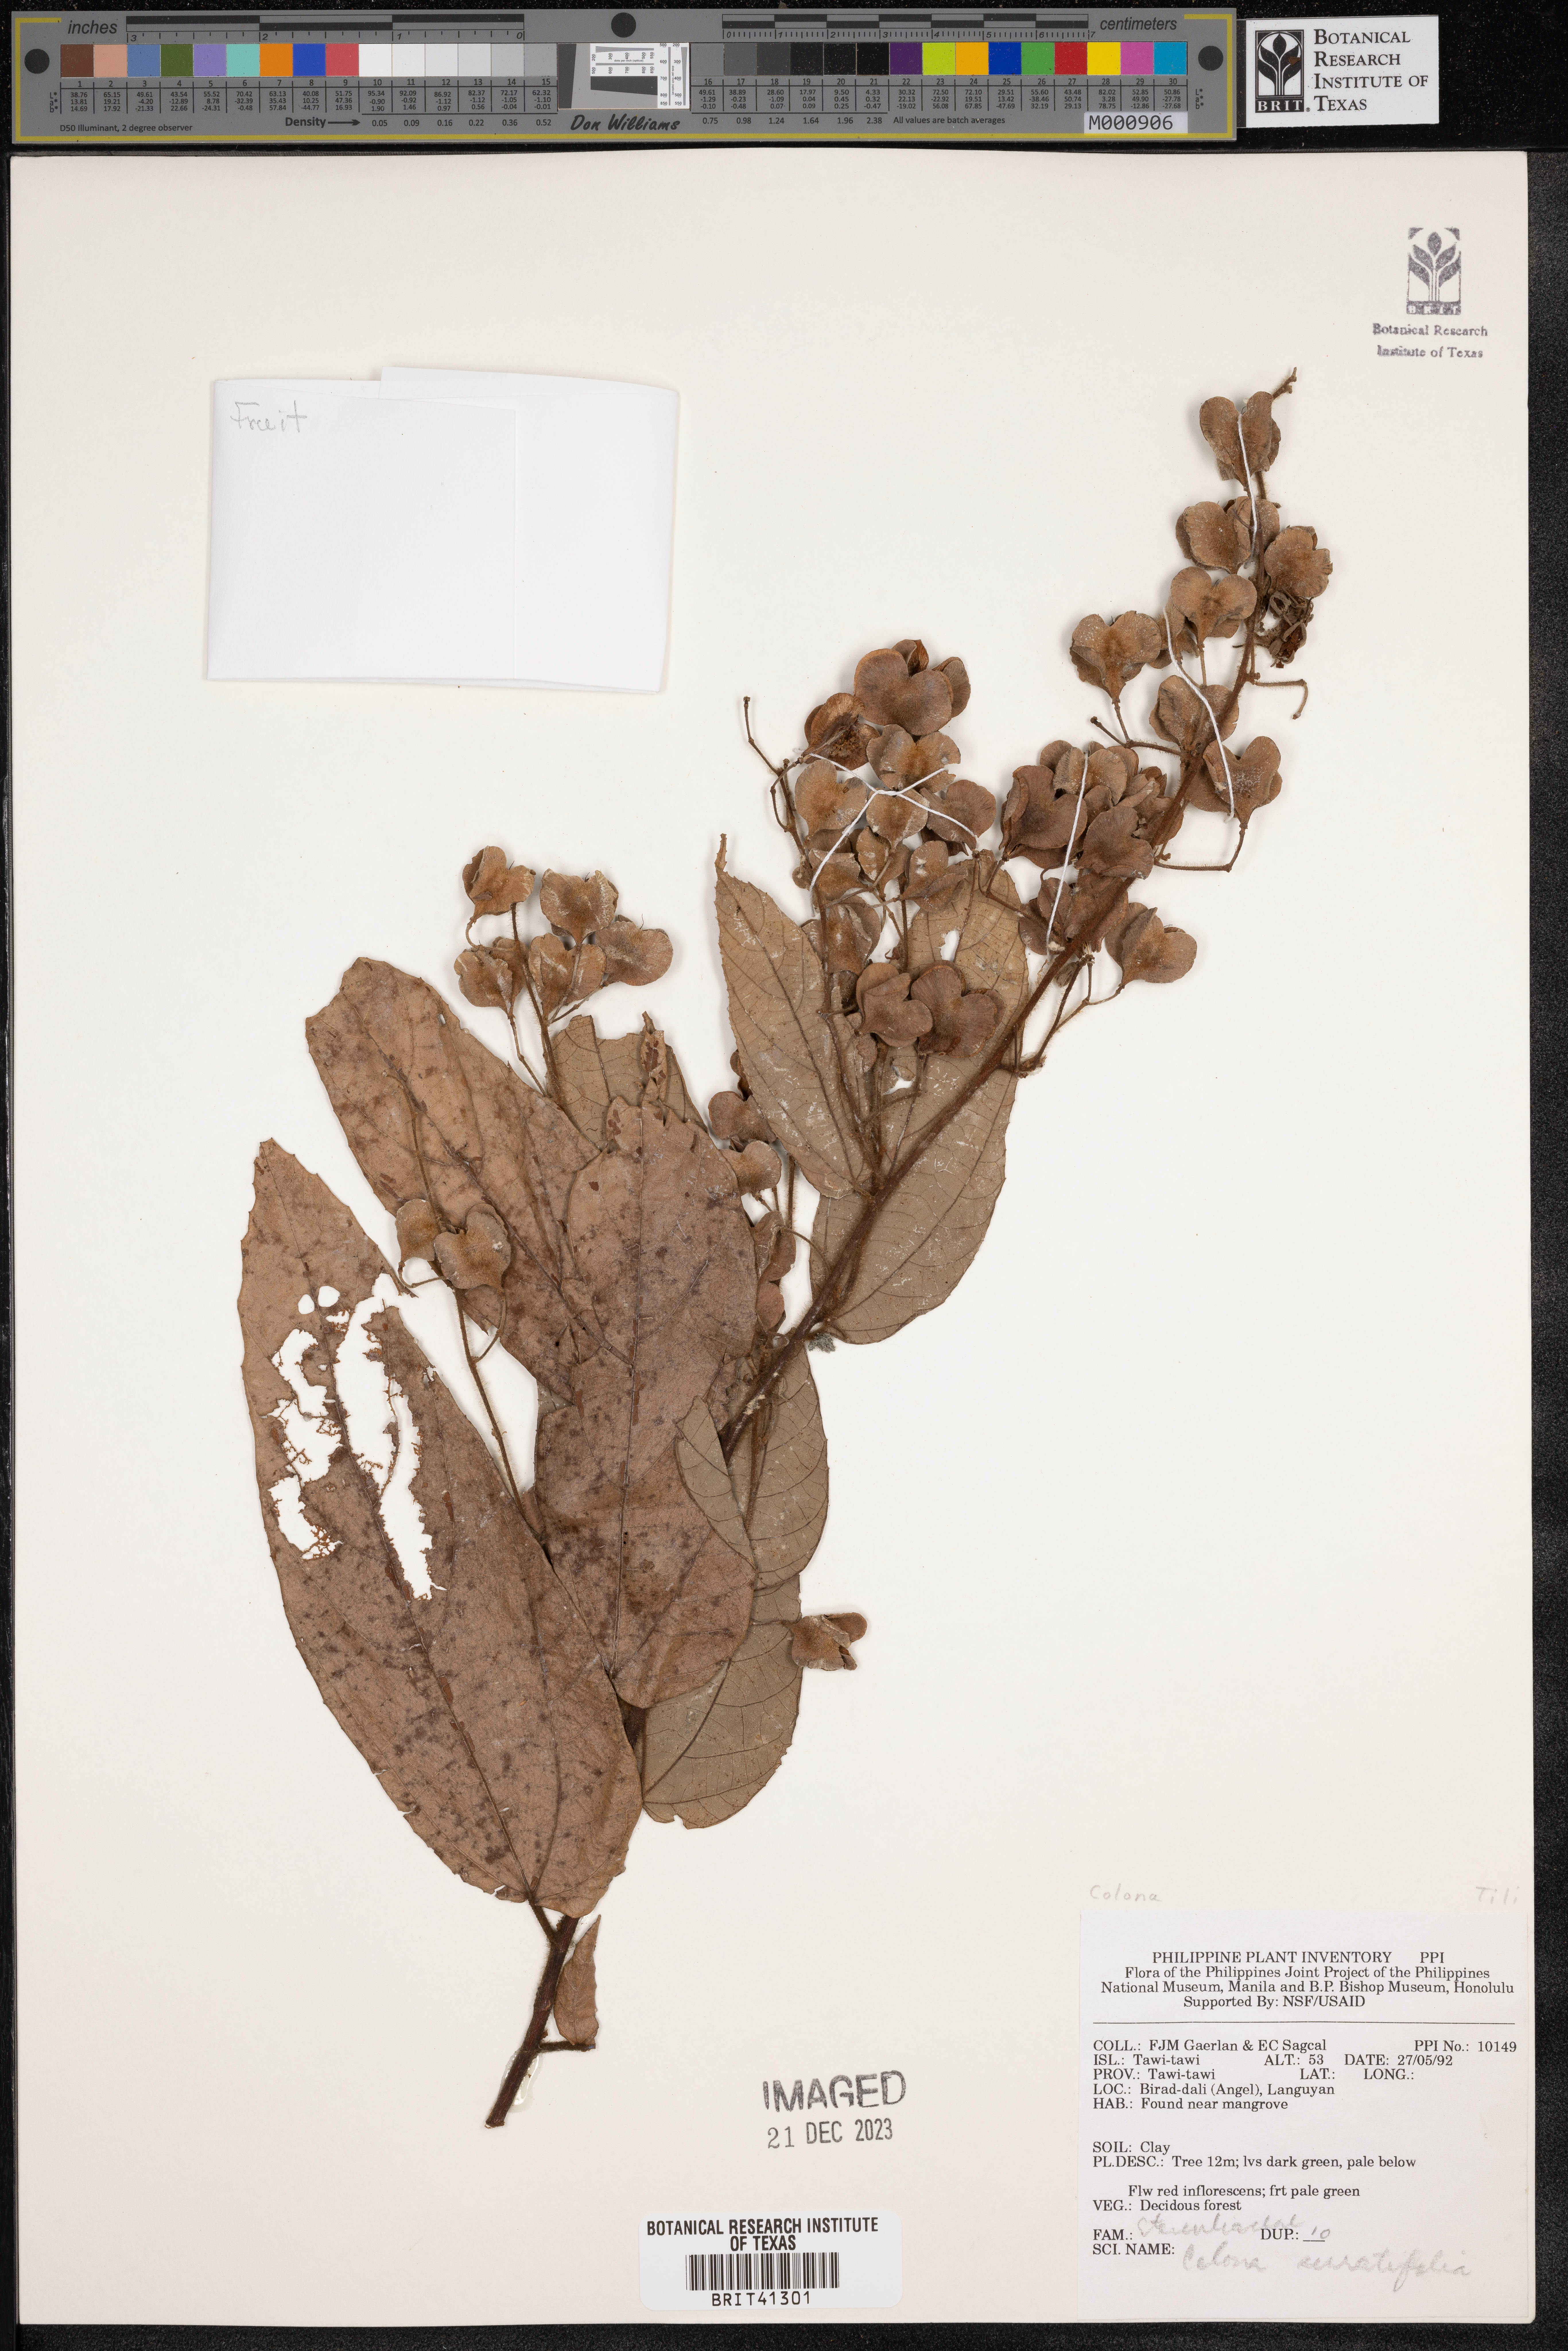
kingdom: Plantae
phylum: Tracheophyta
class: Magnoliopsida
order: Malvales
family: Malvaceae
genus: Colona
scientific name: Colona serratifolia
